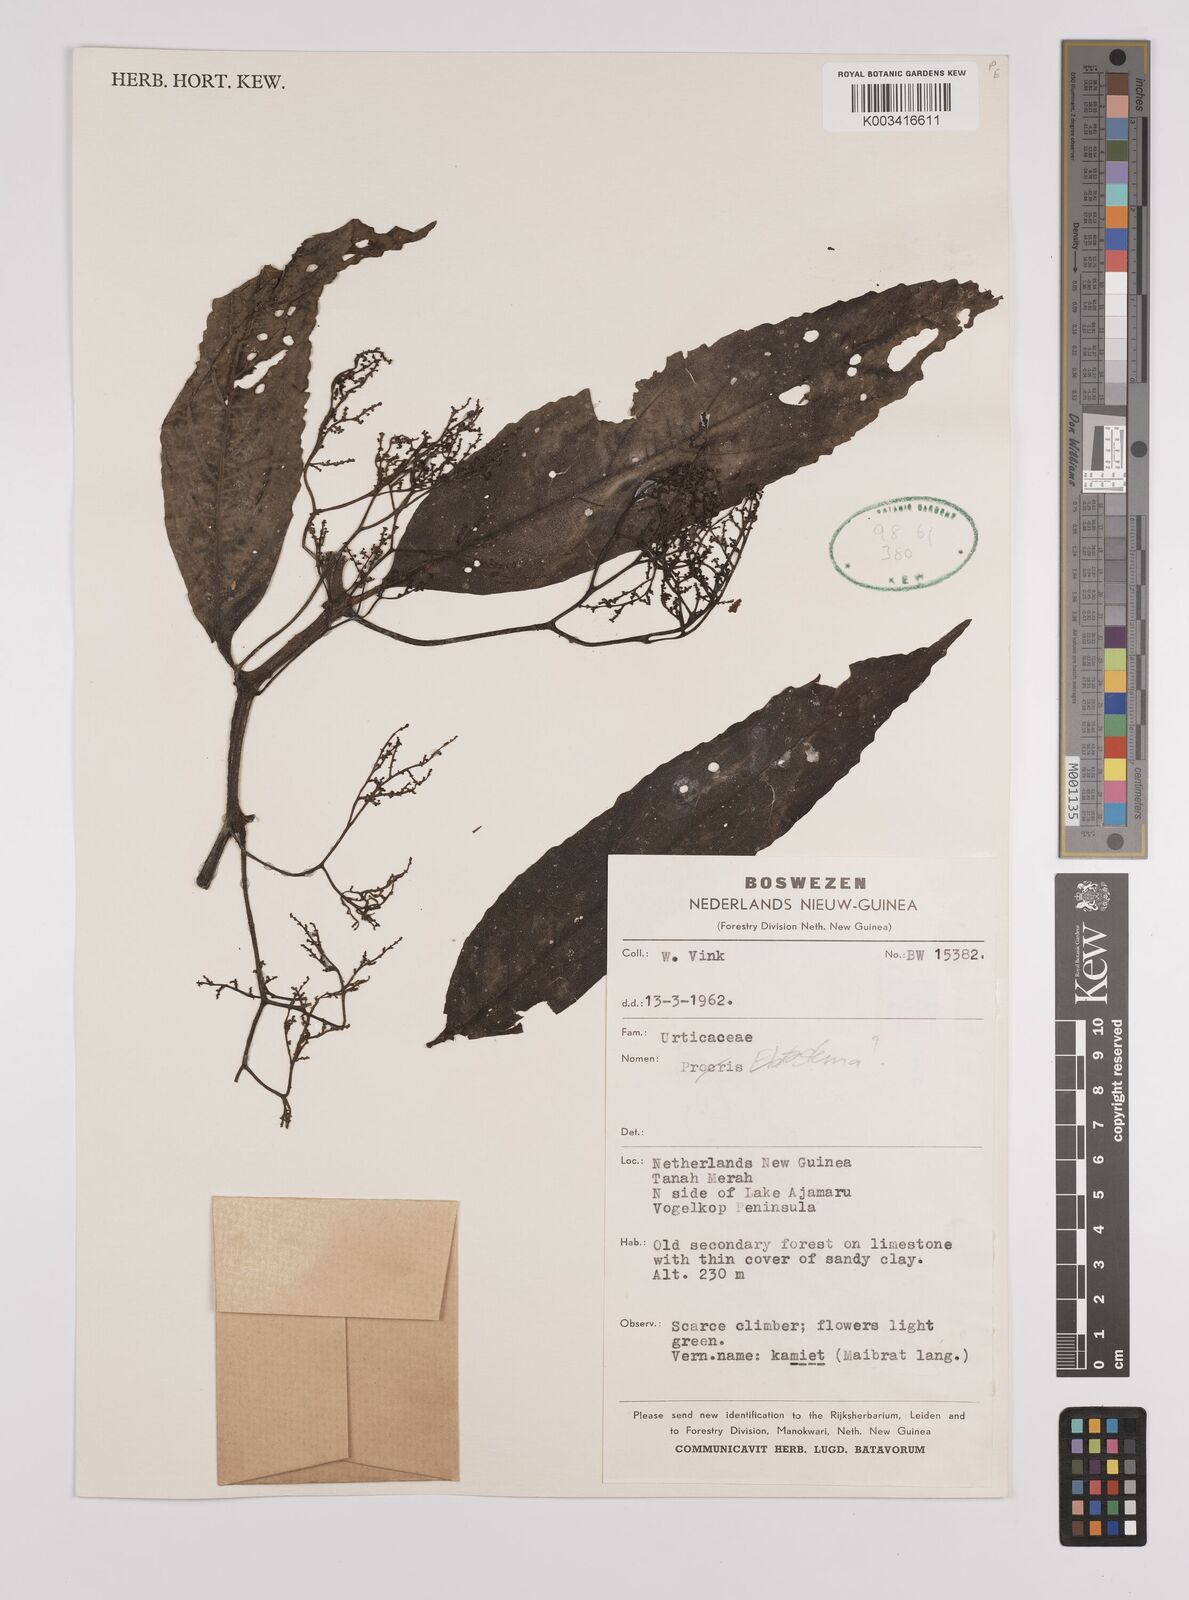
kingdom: Plantae
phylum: Tracheophyta
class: Magnoliopsida
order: Rosales
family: Urticaceae
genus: Elatostema
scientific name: Elatostema
